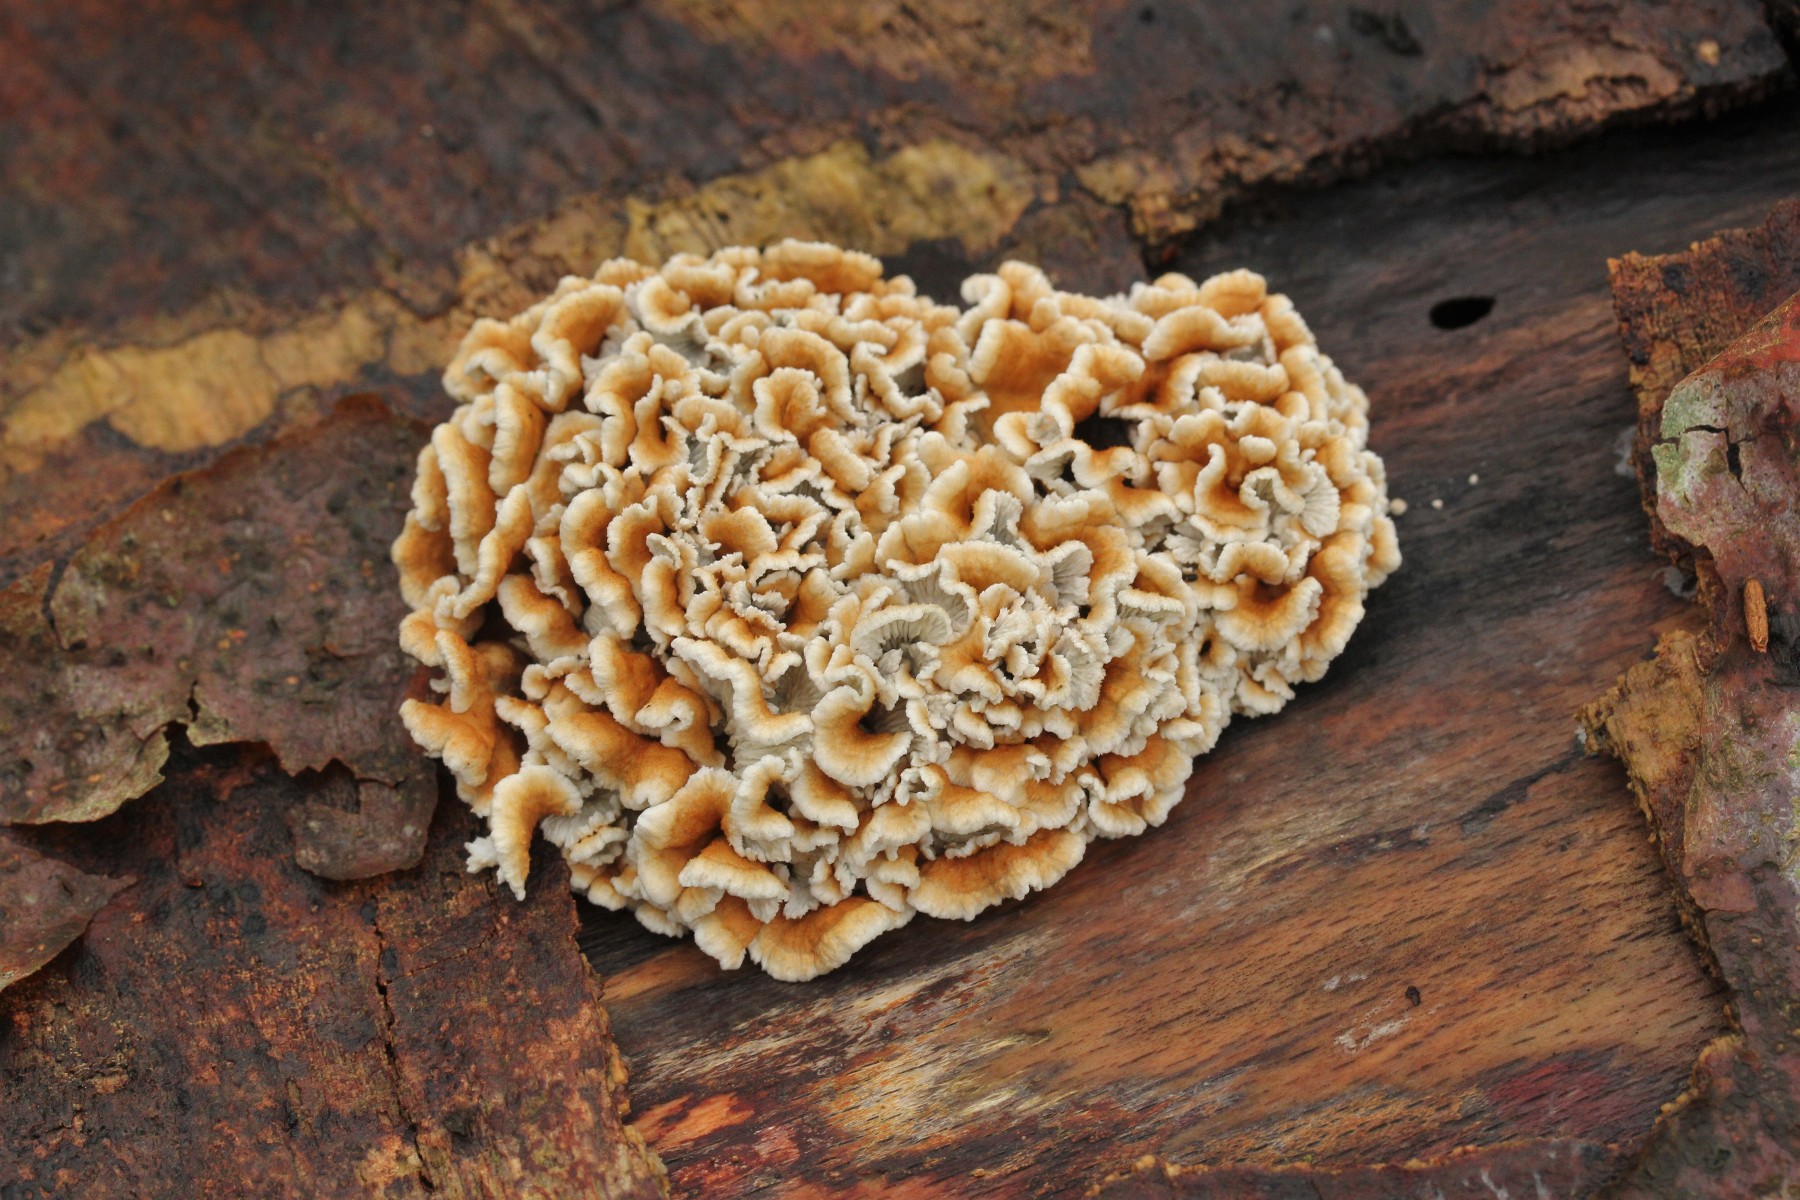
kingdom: Fungi
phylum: Basidiomycota
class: Agaricomycetes
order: Amylocorticiales
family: Amylocorticiaceae
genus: Plicaturopsis
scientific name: Plicaturopsis crispa
